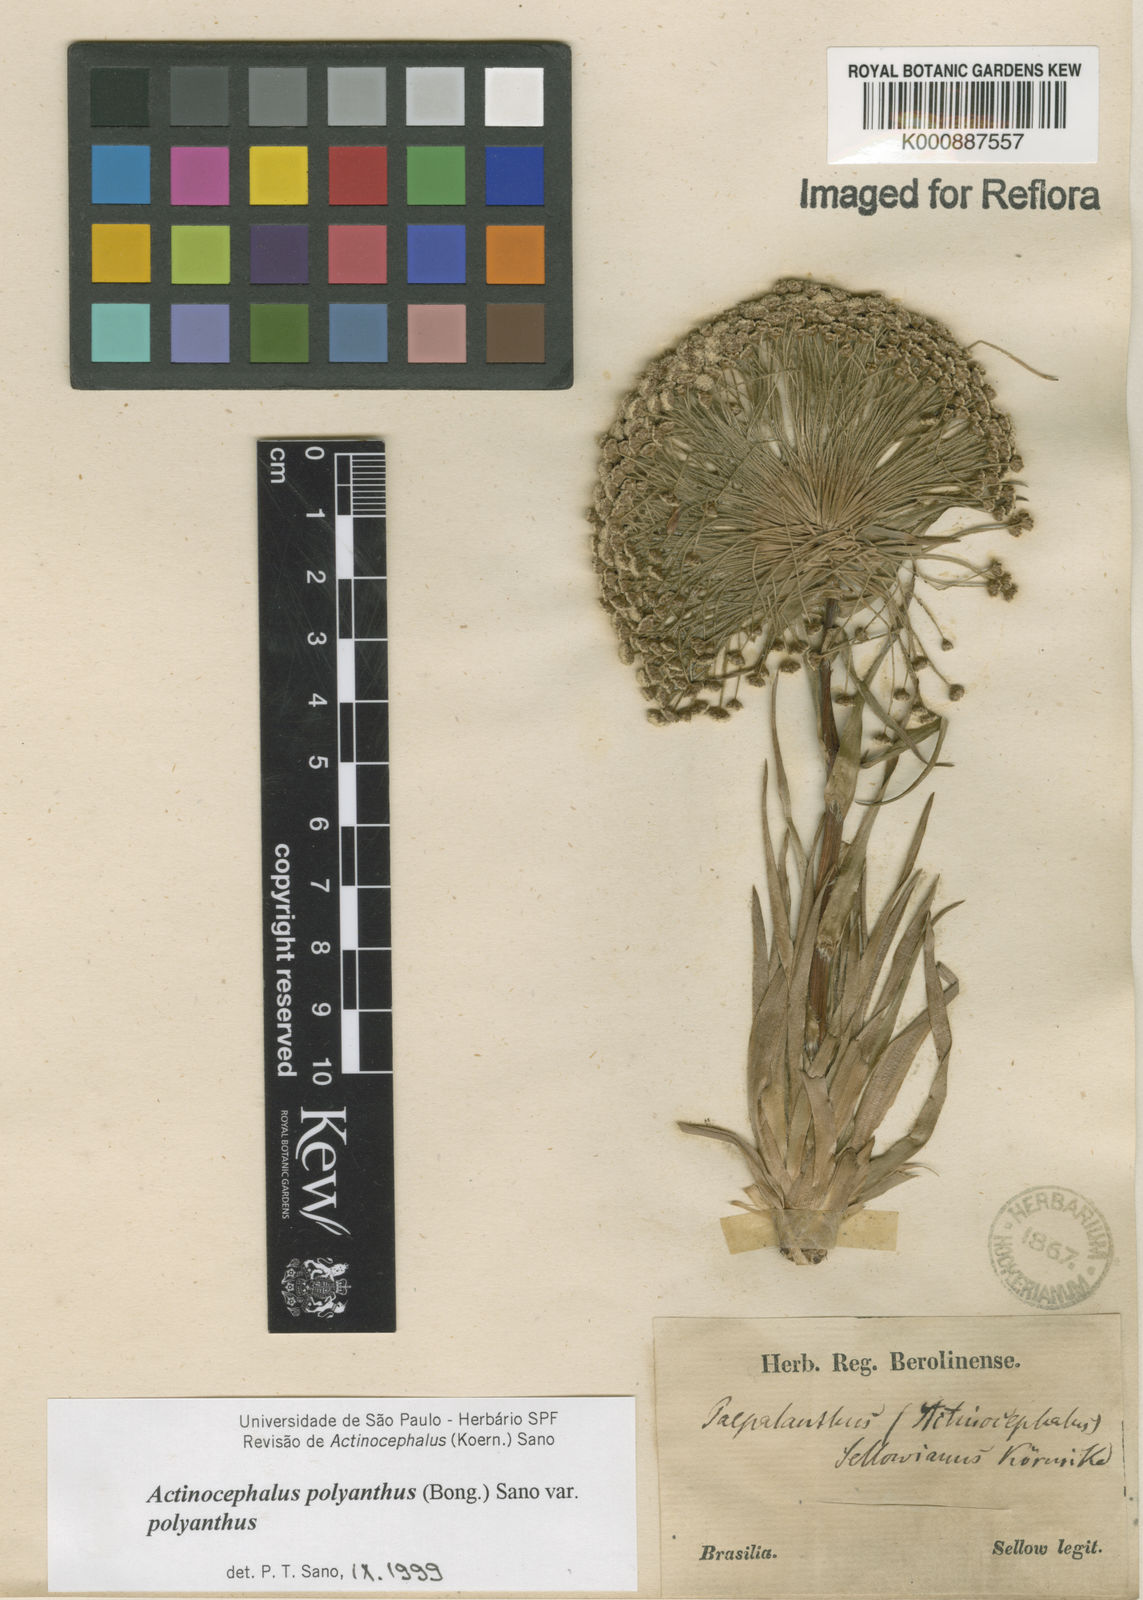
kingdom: Plantae
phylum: Tracheophyta
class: Liliopsida
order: Poales
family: Eriocaulaceae
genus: Paepalanthus
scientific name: Paepalanthus polyanthus
